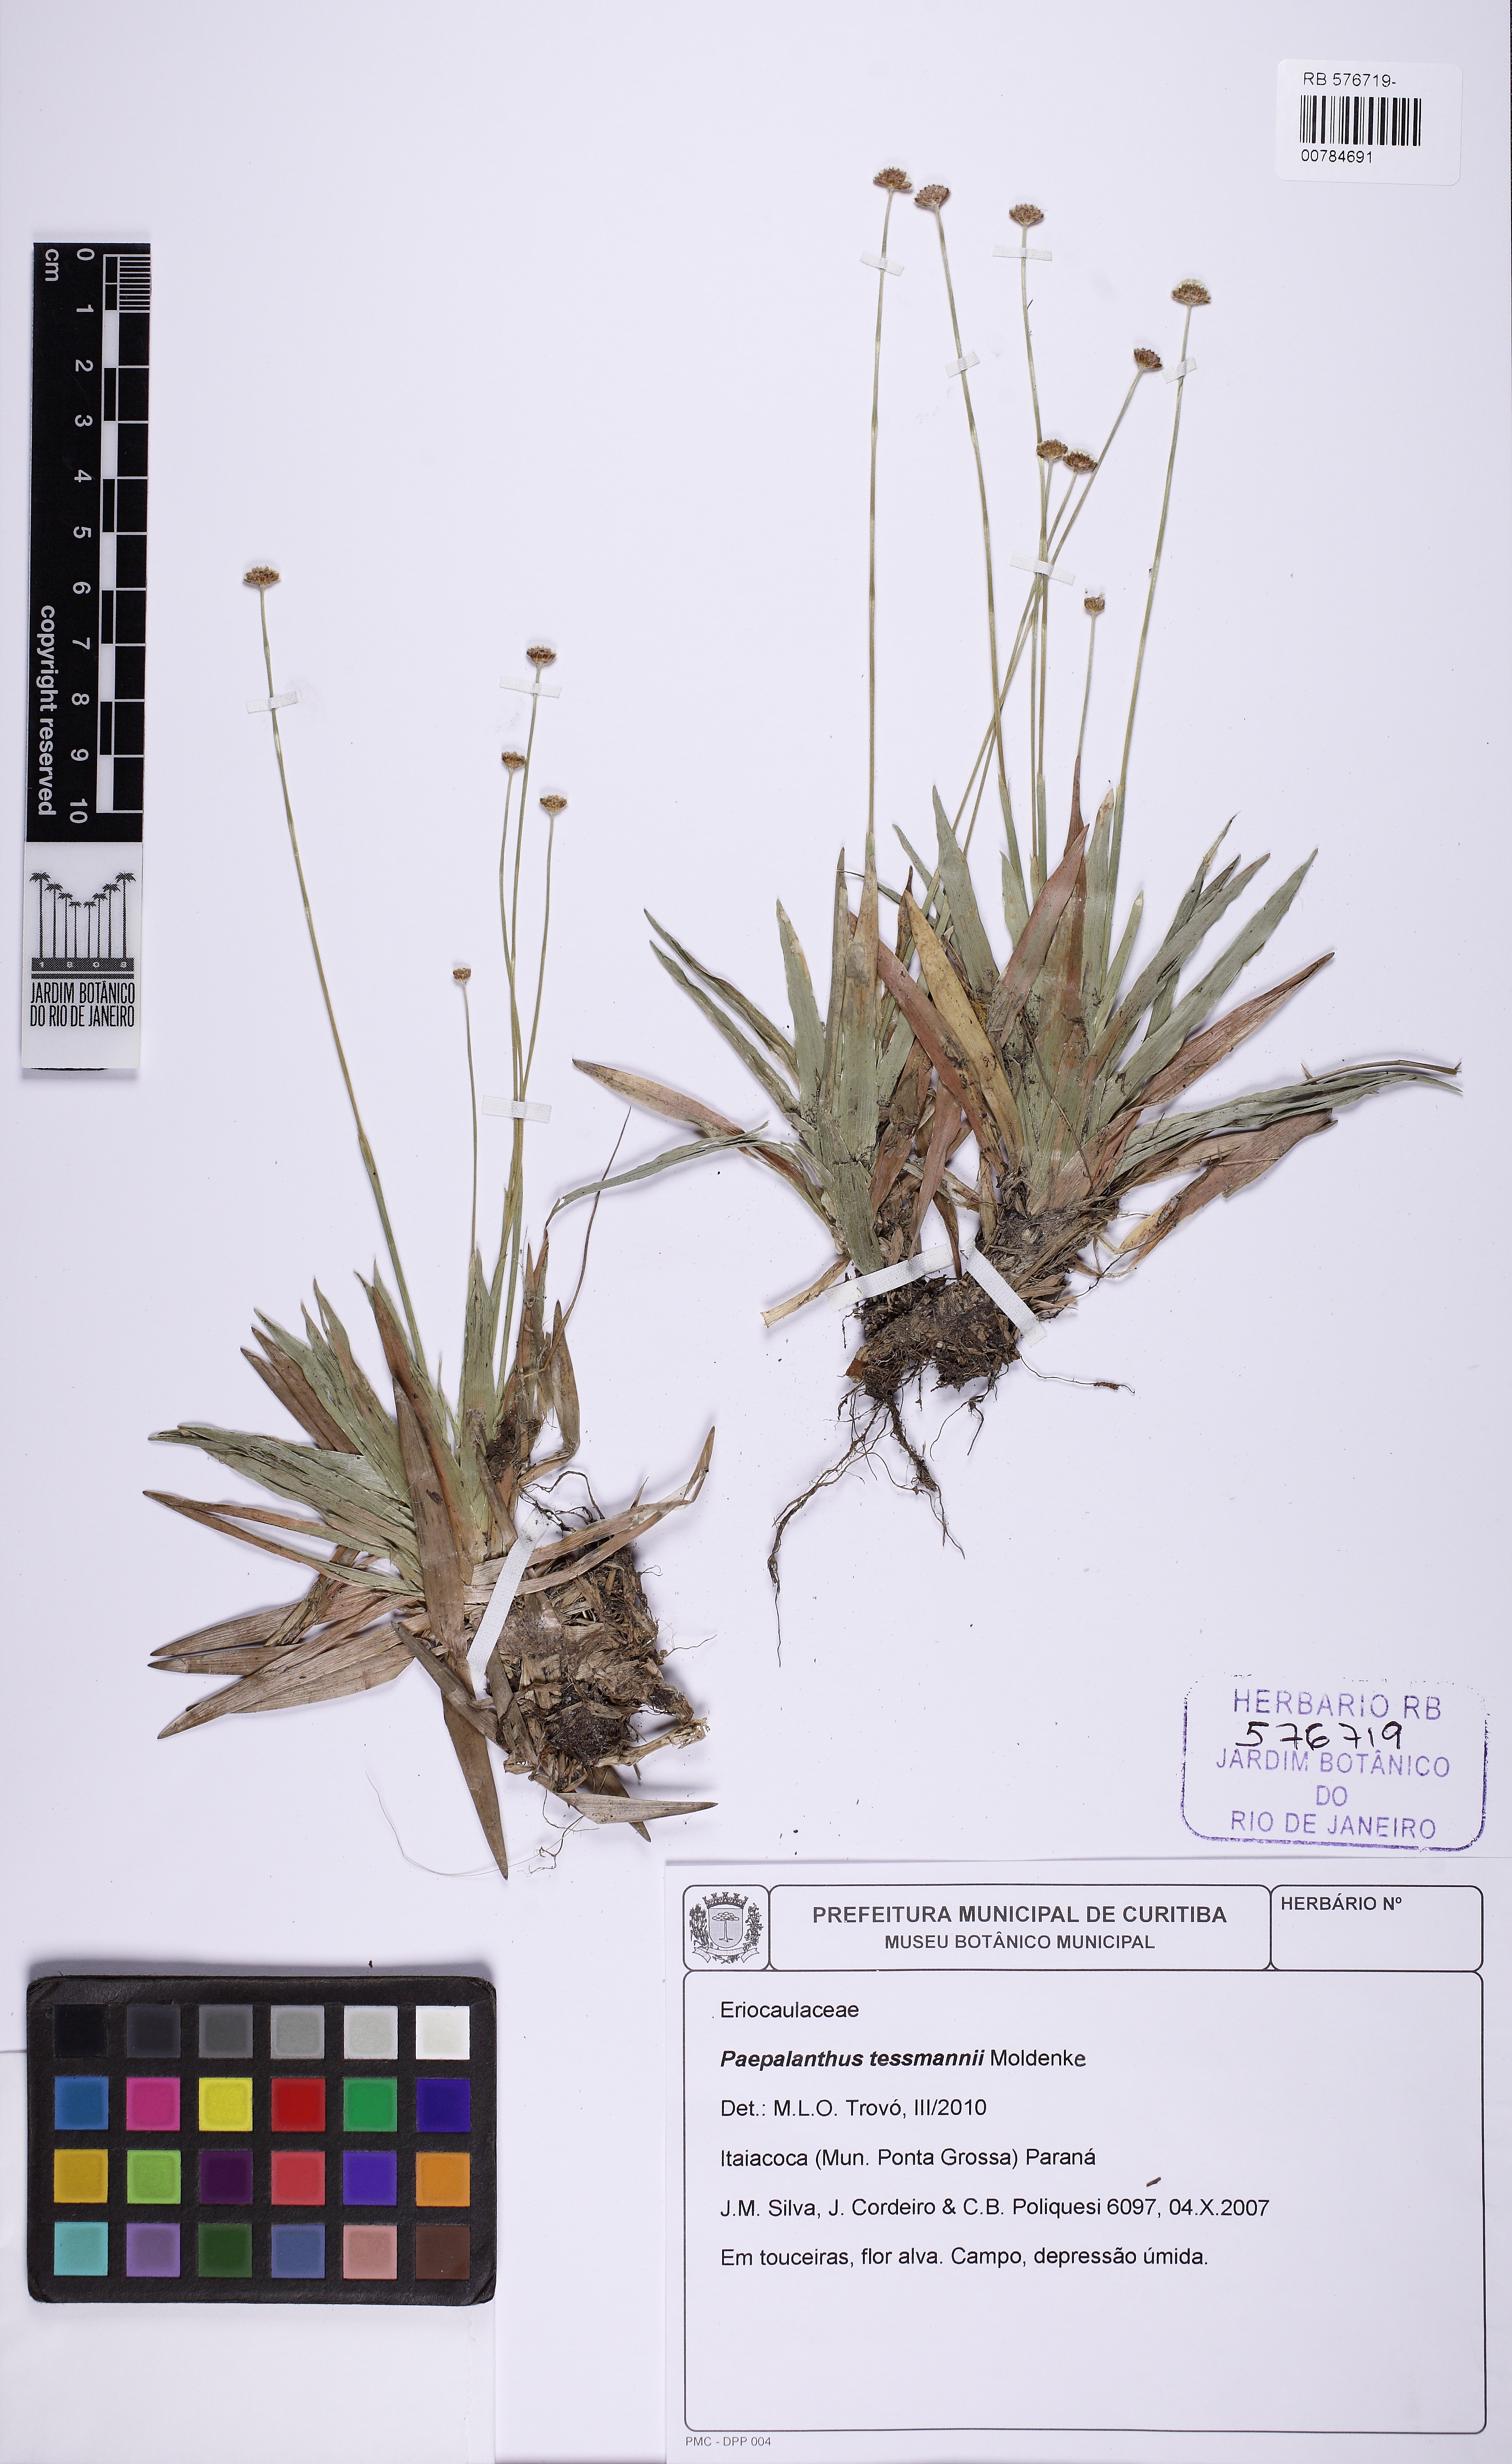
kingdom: Plantae
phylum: Tracheophyta
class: Liliopsida
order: Poales
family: Eriocaulaceae
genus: Paepalanthus
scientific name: Paepalanthus tessmannii
